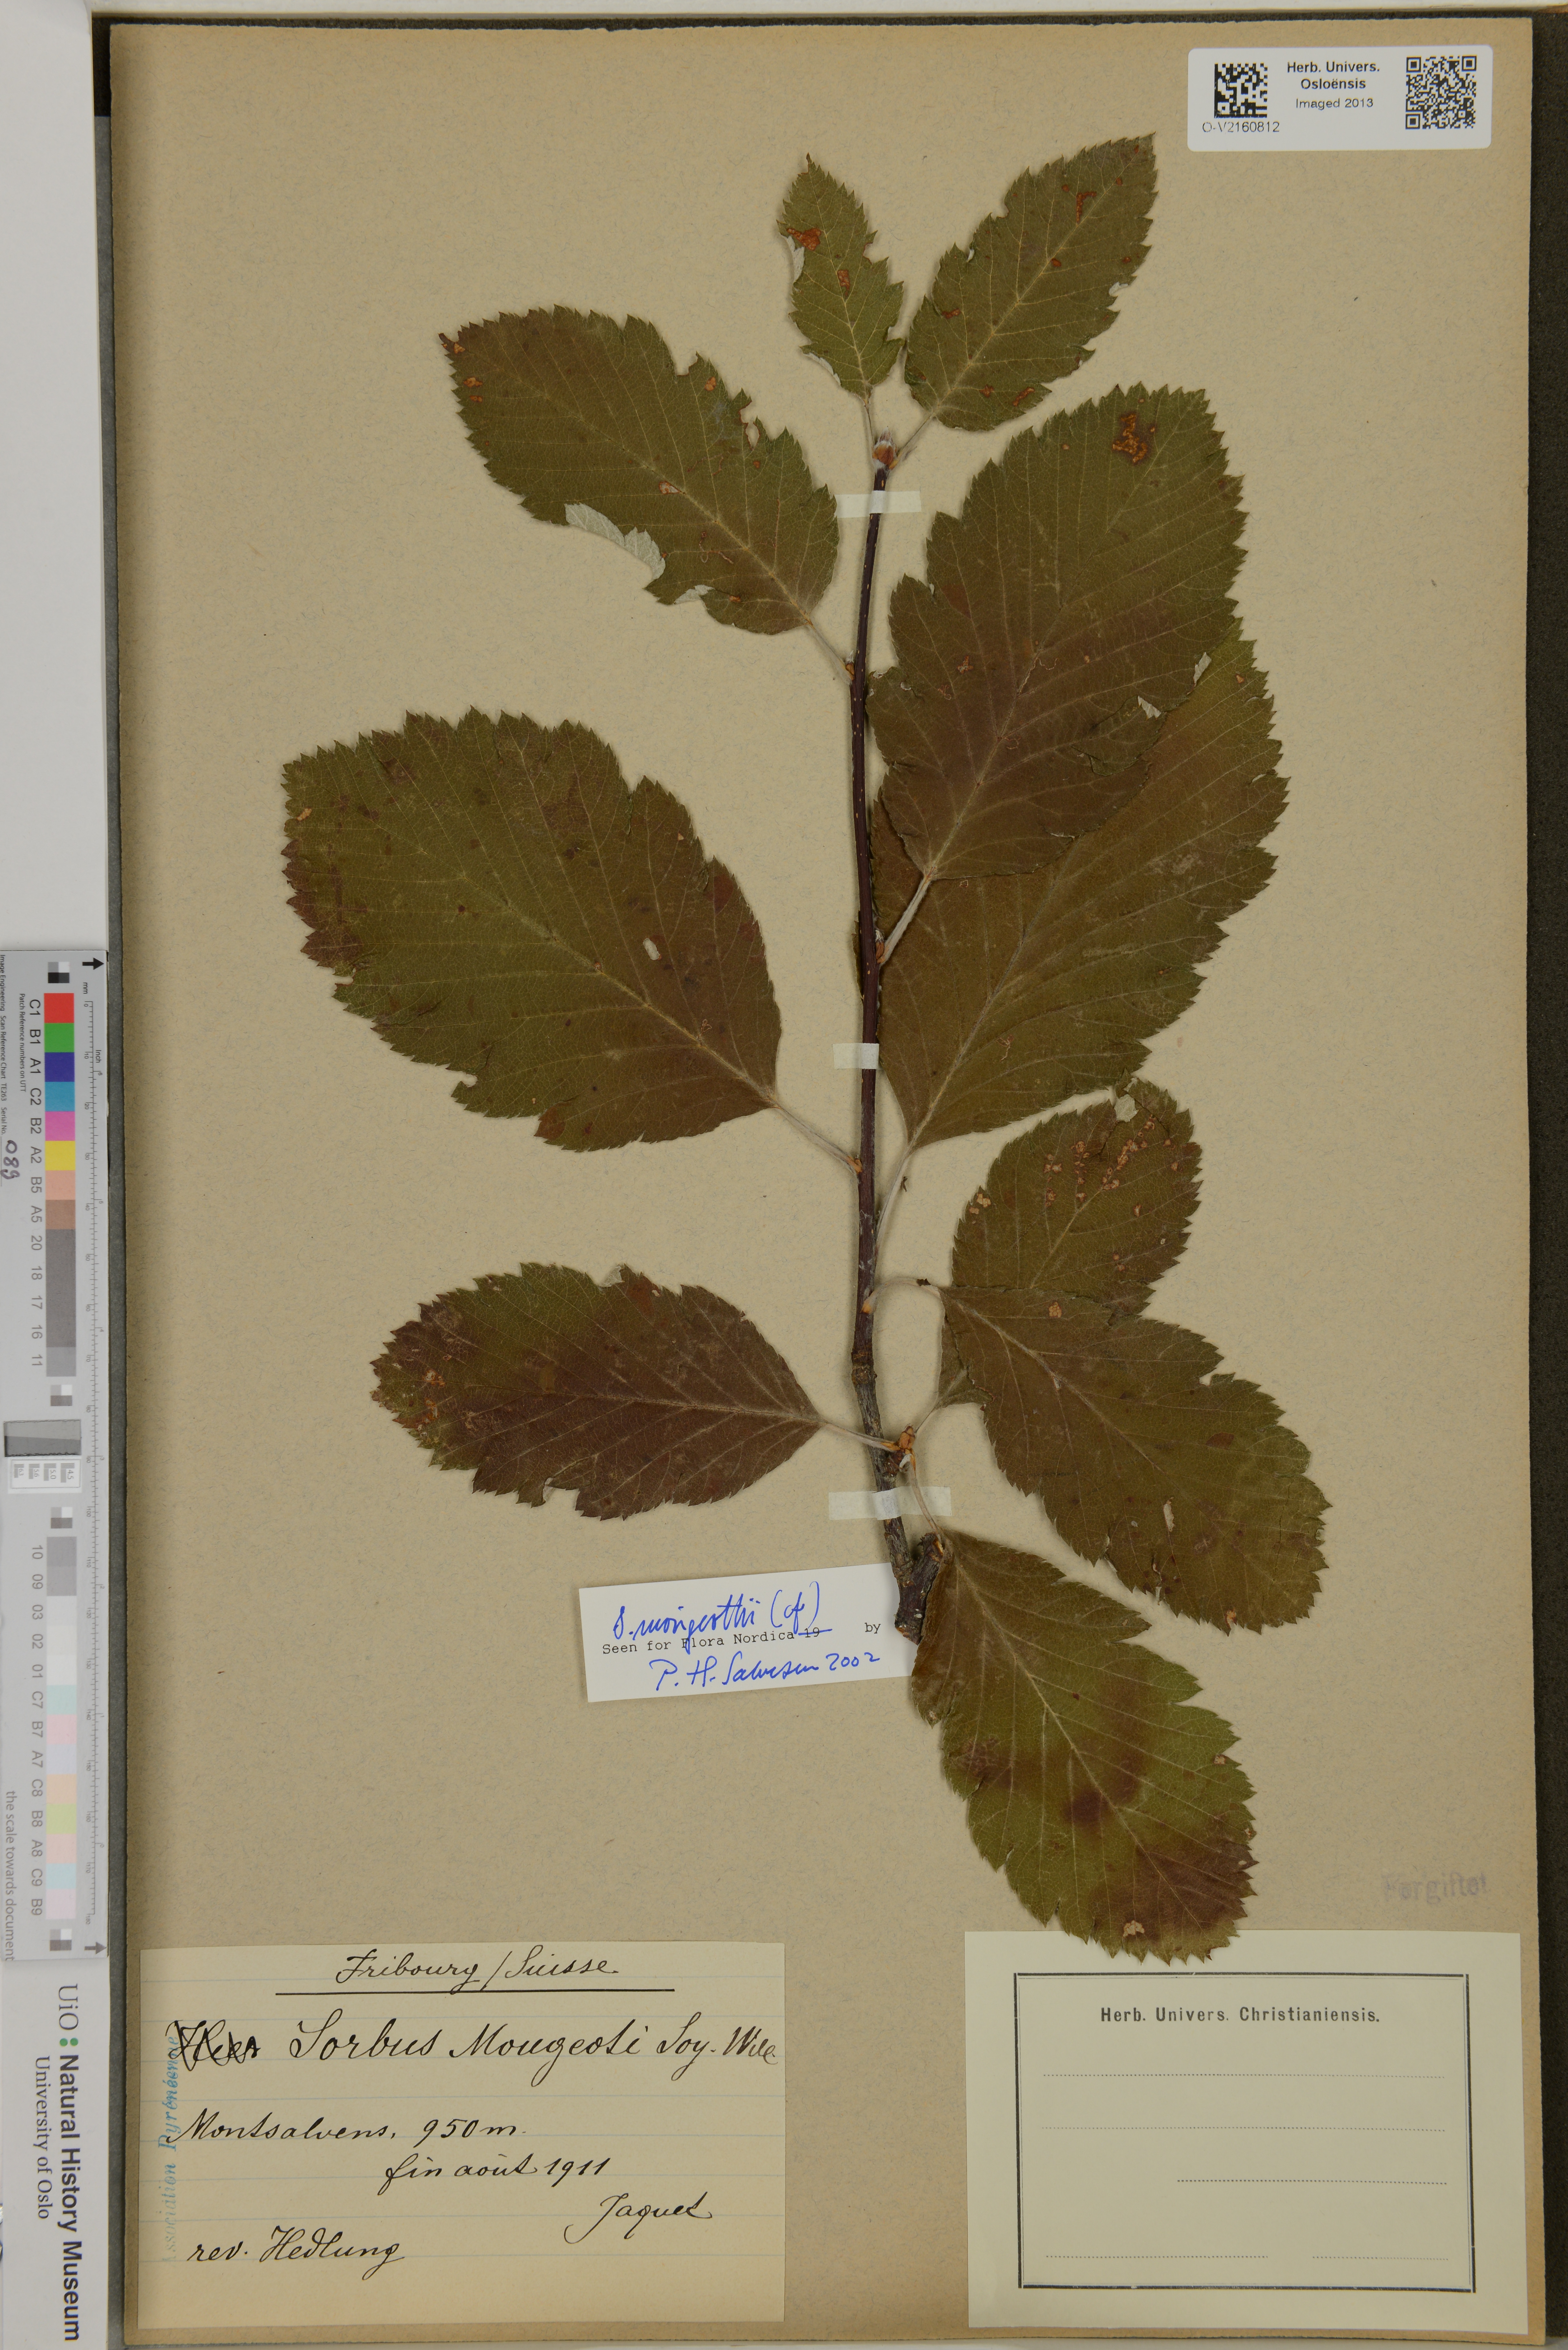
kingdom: Plantae
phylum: Tracheophyta
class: Magnoliopsida
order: Rosales
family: Rosaceae
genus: Hedlundia
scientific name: Hedlundia mougeotii
